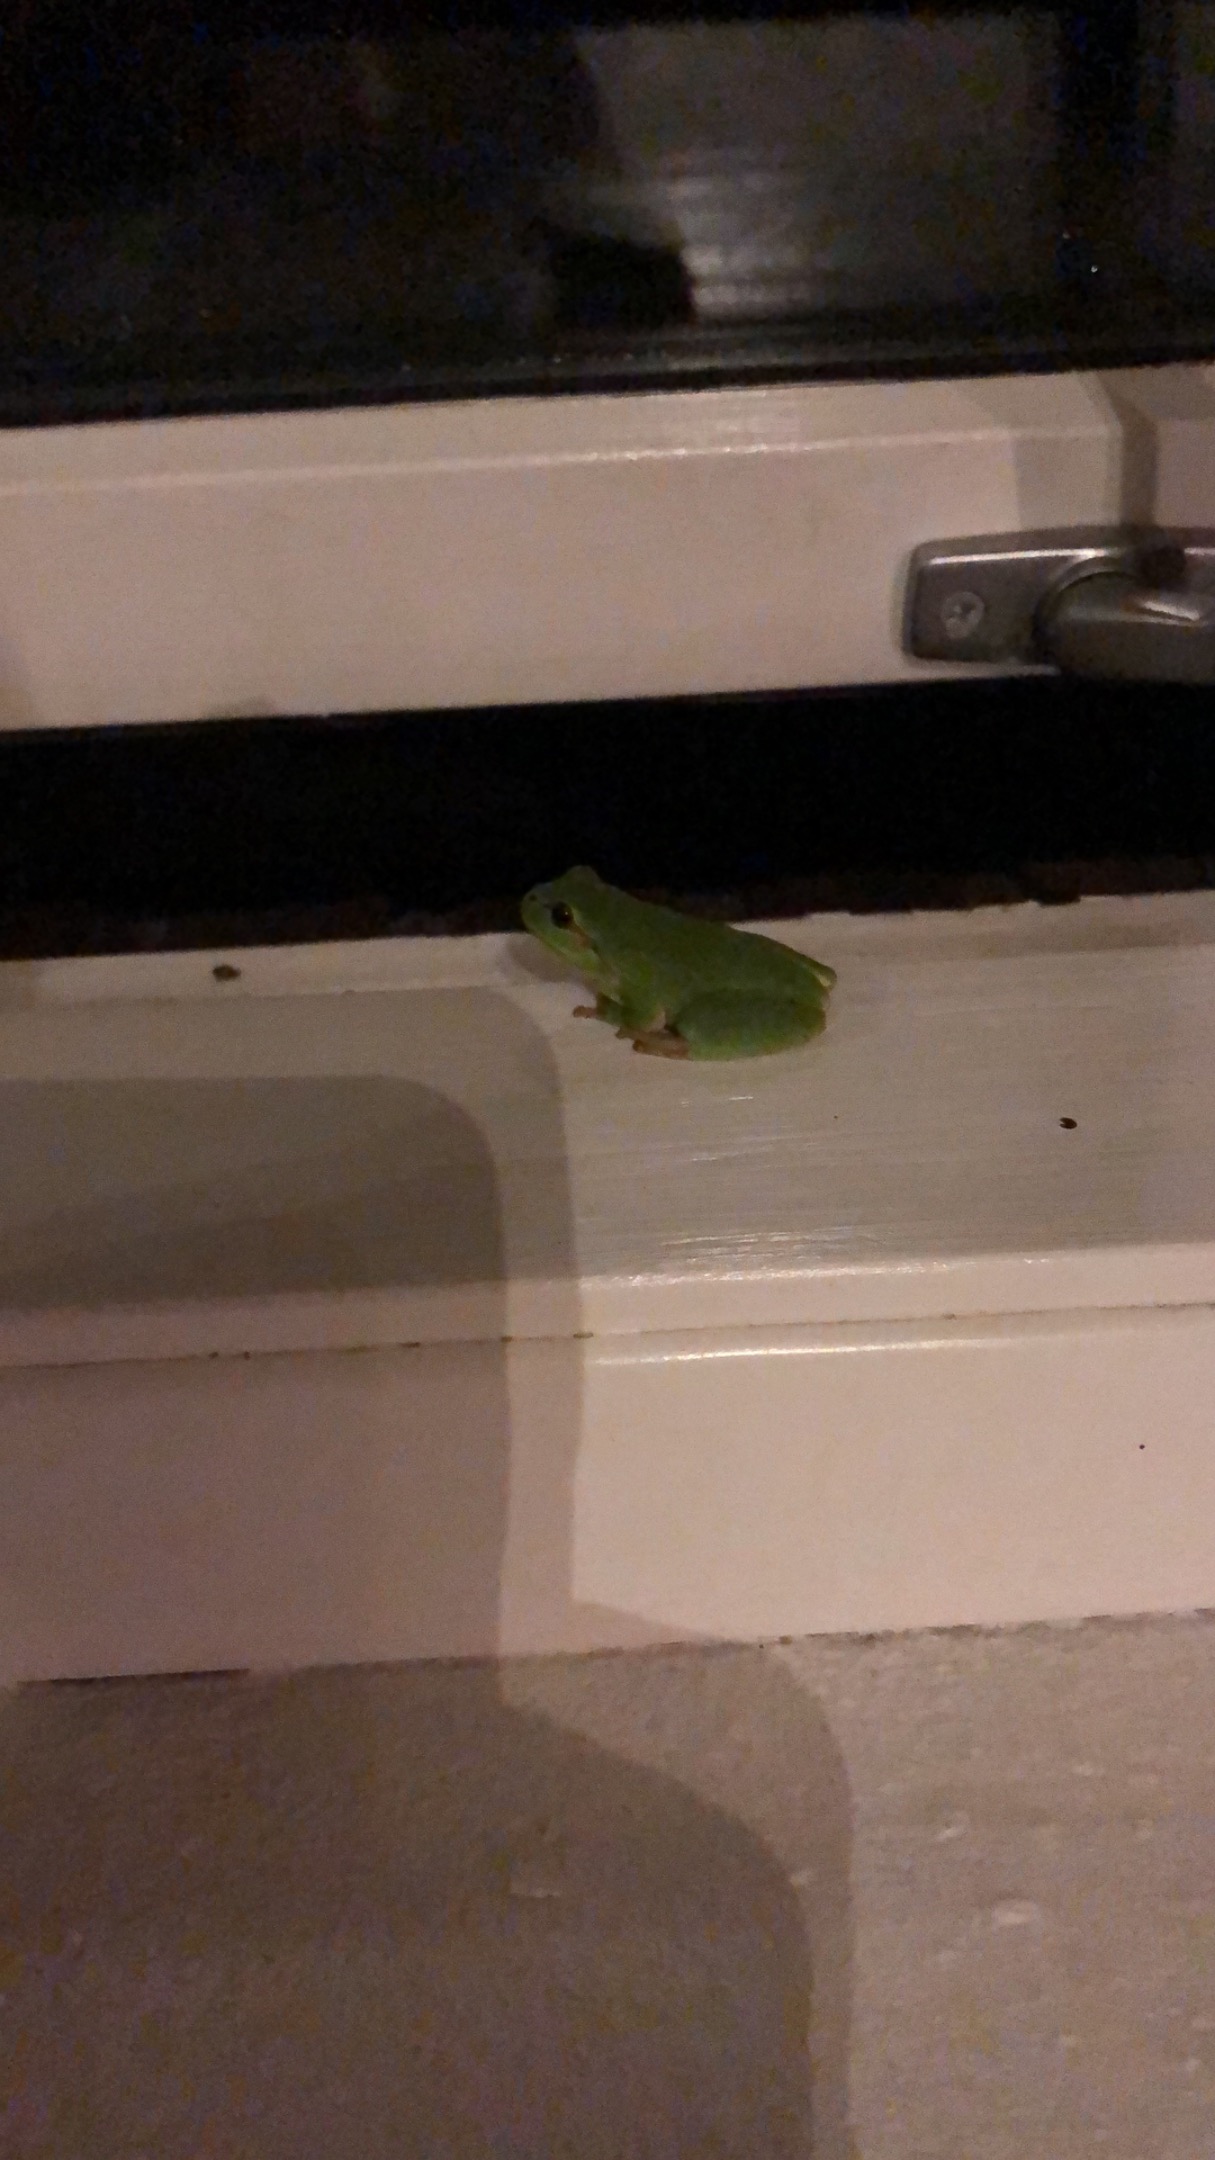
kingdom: Animalia
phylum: Chordata
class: Amphibia
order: Anura
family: Hylidae
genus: Hyla
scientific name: Hyla arborea
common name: Løvfrø
